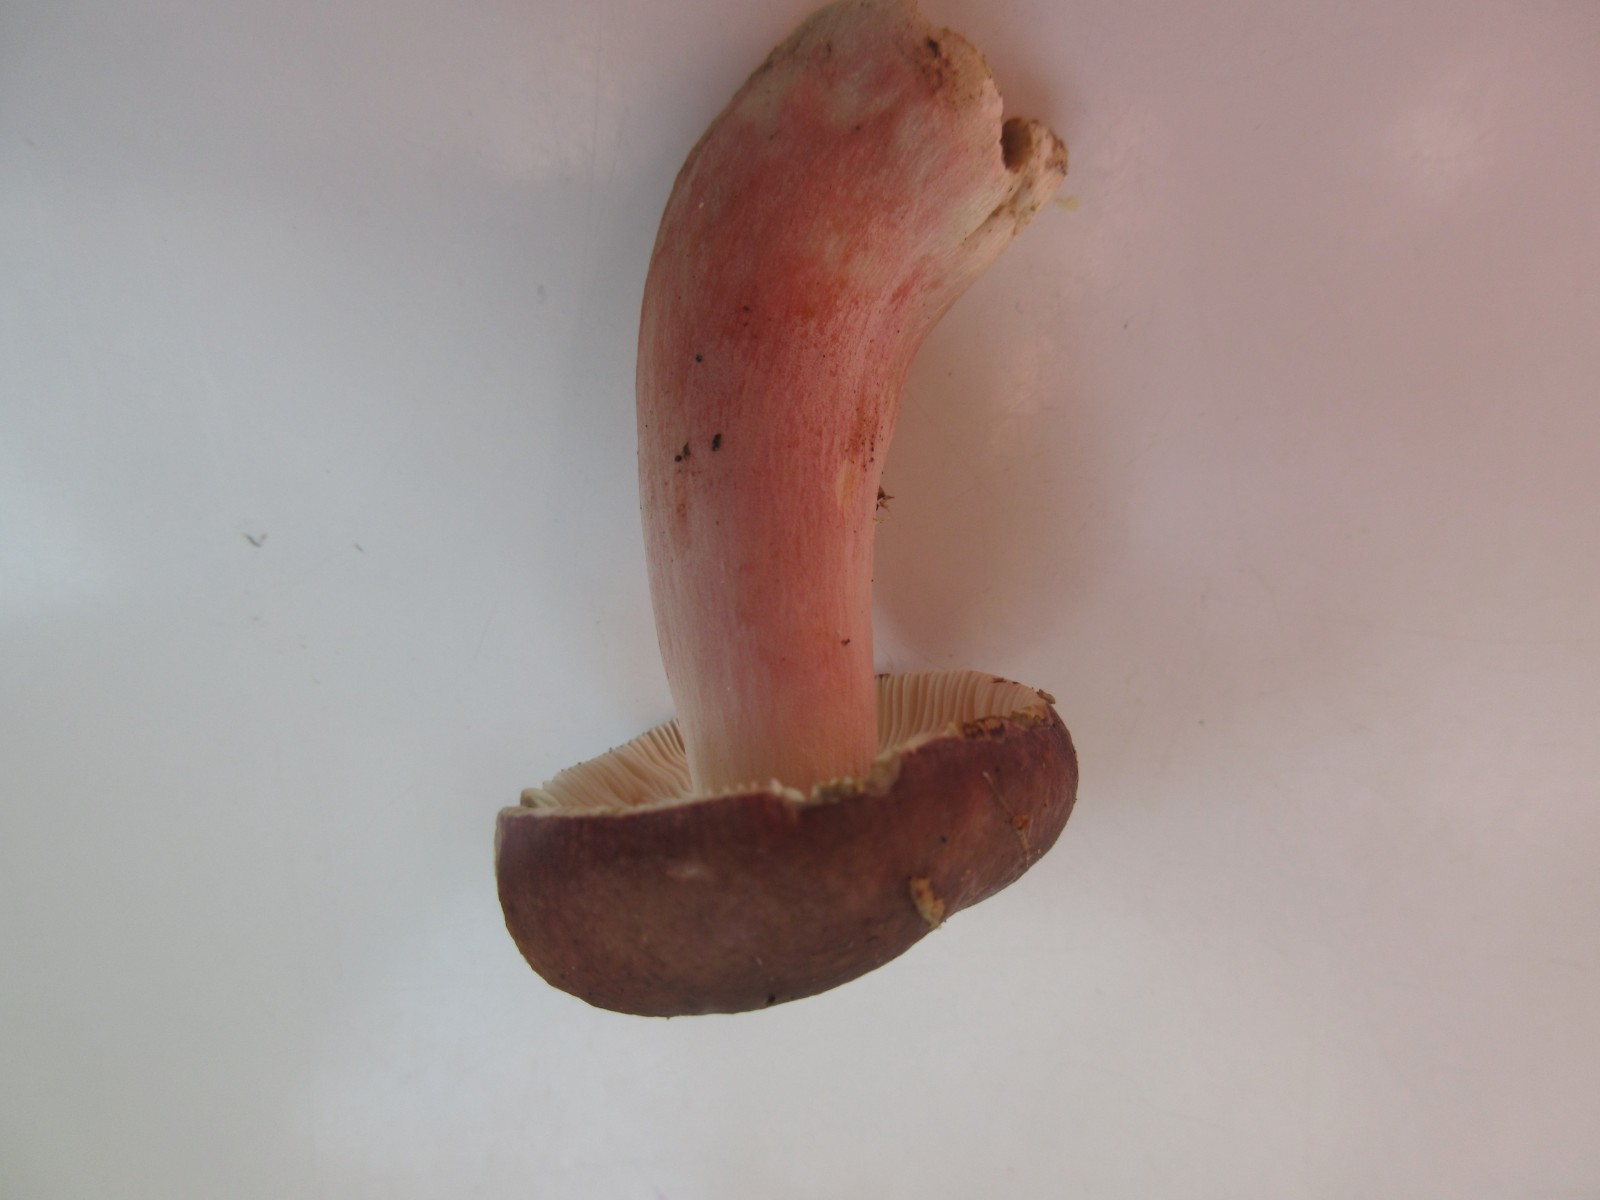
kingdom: Fungi
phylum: Basidiomycota
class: Agaricomycetes
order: Russulales
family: Russulaceae
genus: Russula
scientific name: Russula queletii
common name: Quélets skørhat
